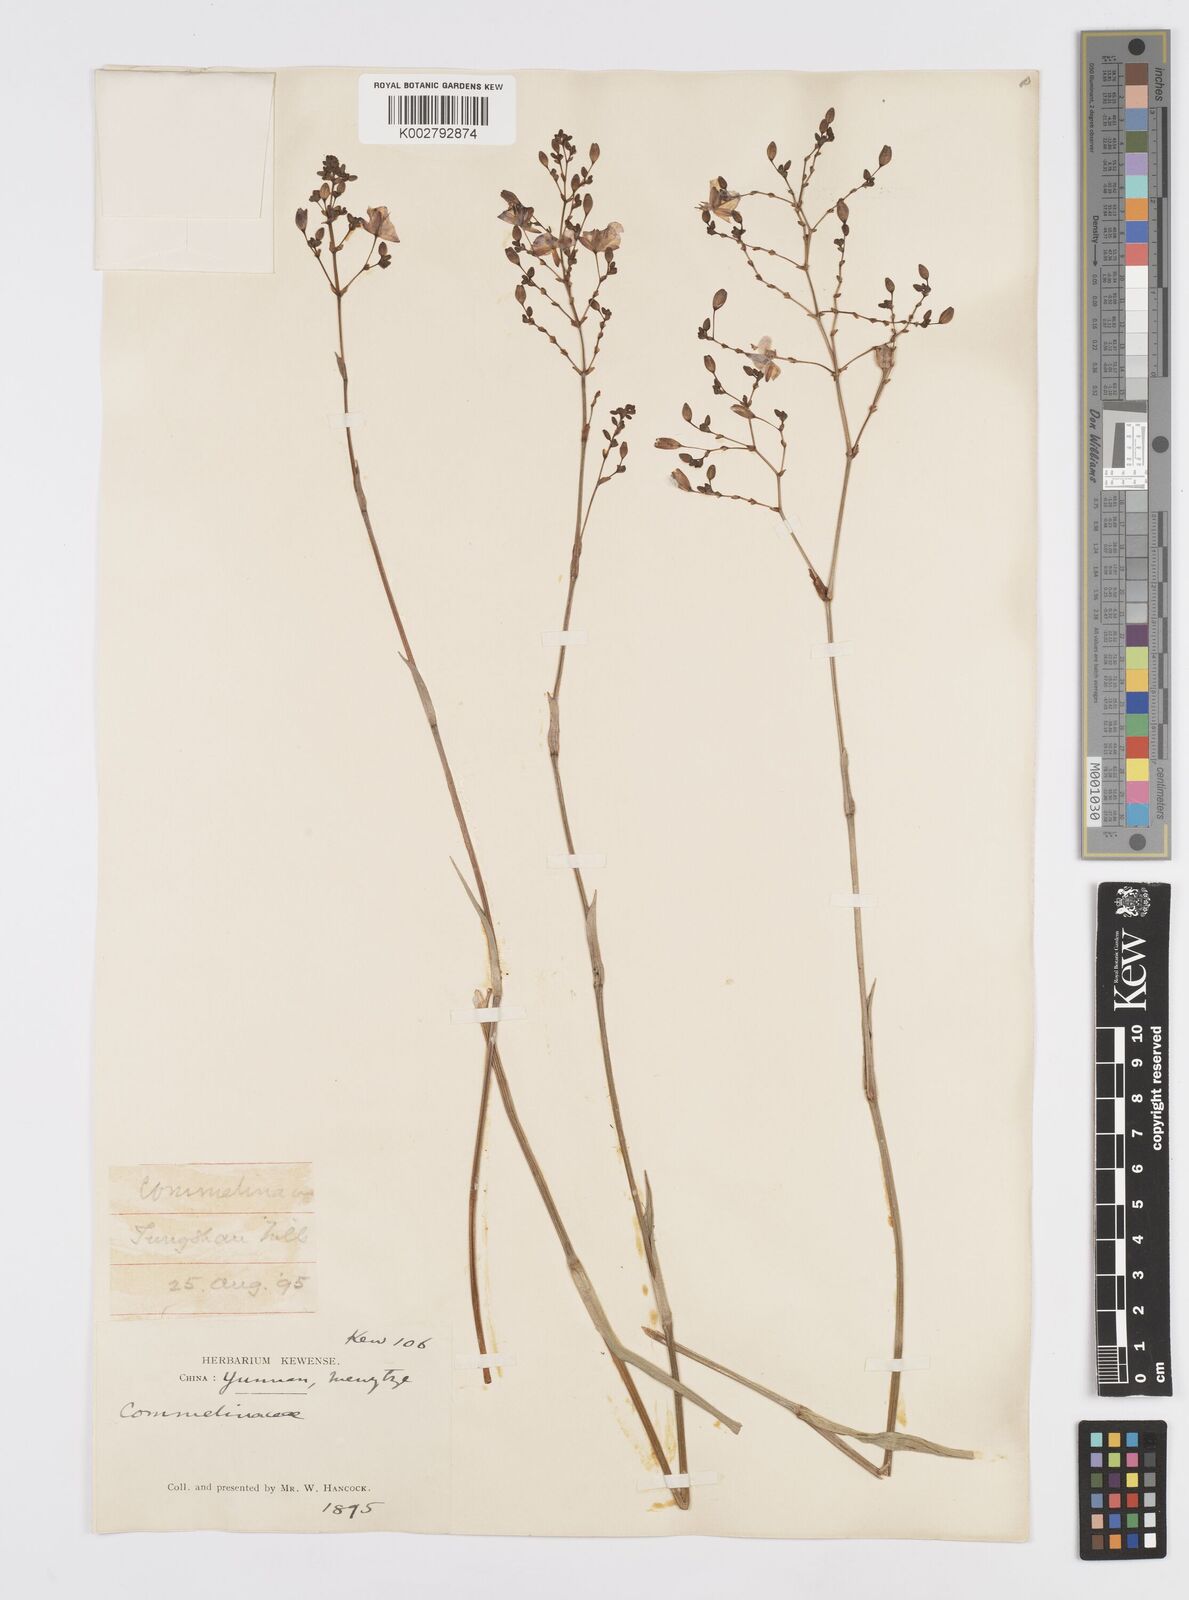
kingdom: Plantae
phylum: Tracheophyta
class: Liliopsida
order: Commelinales
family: Commelinaceae
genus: Murdannia
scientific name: Murdannia
